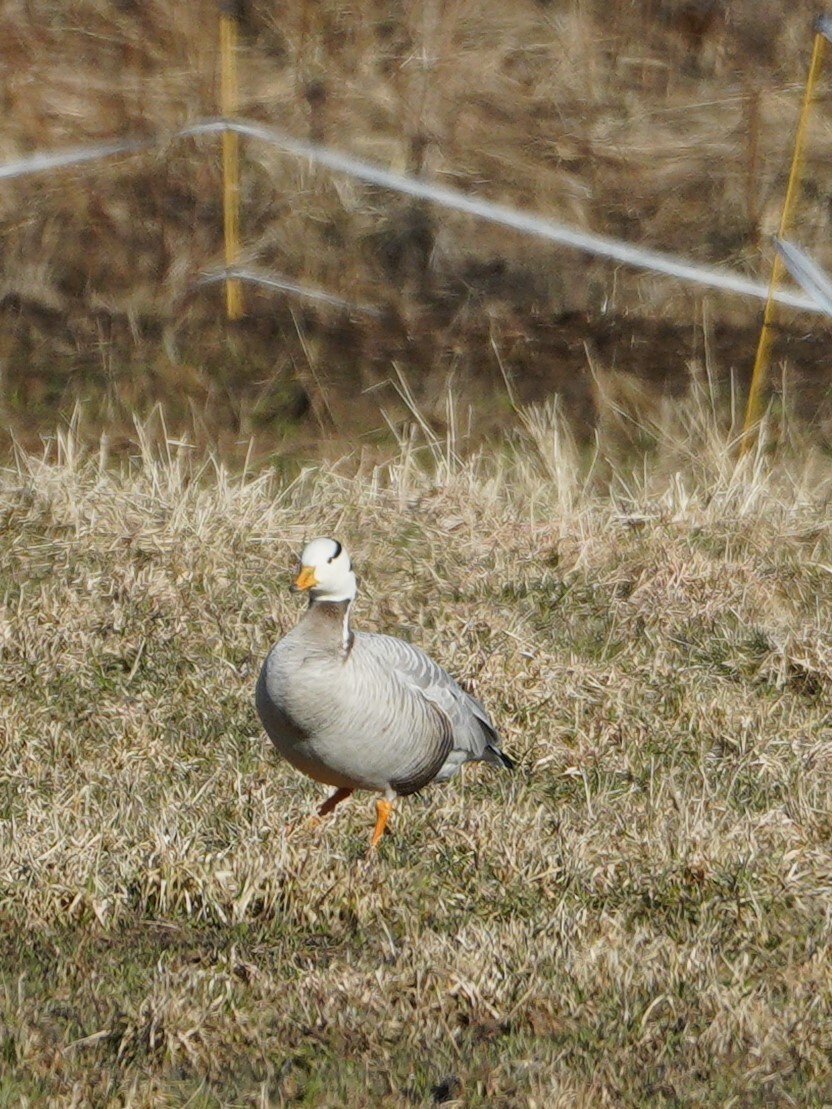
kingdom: Animalia
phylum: Chordata
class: Aves
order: Anseriformes
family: Anatidae
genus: Anser
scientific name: Anser indicus
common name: Bar-headed goose
